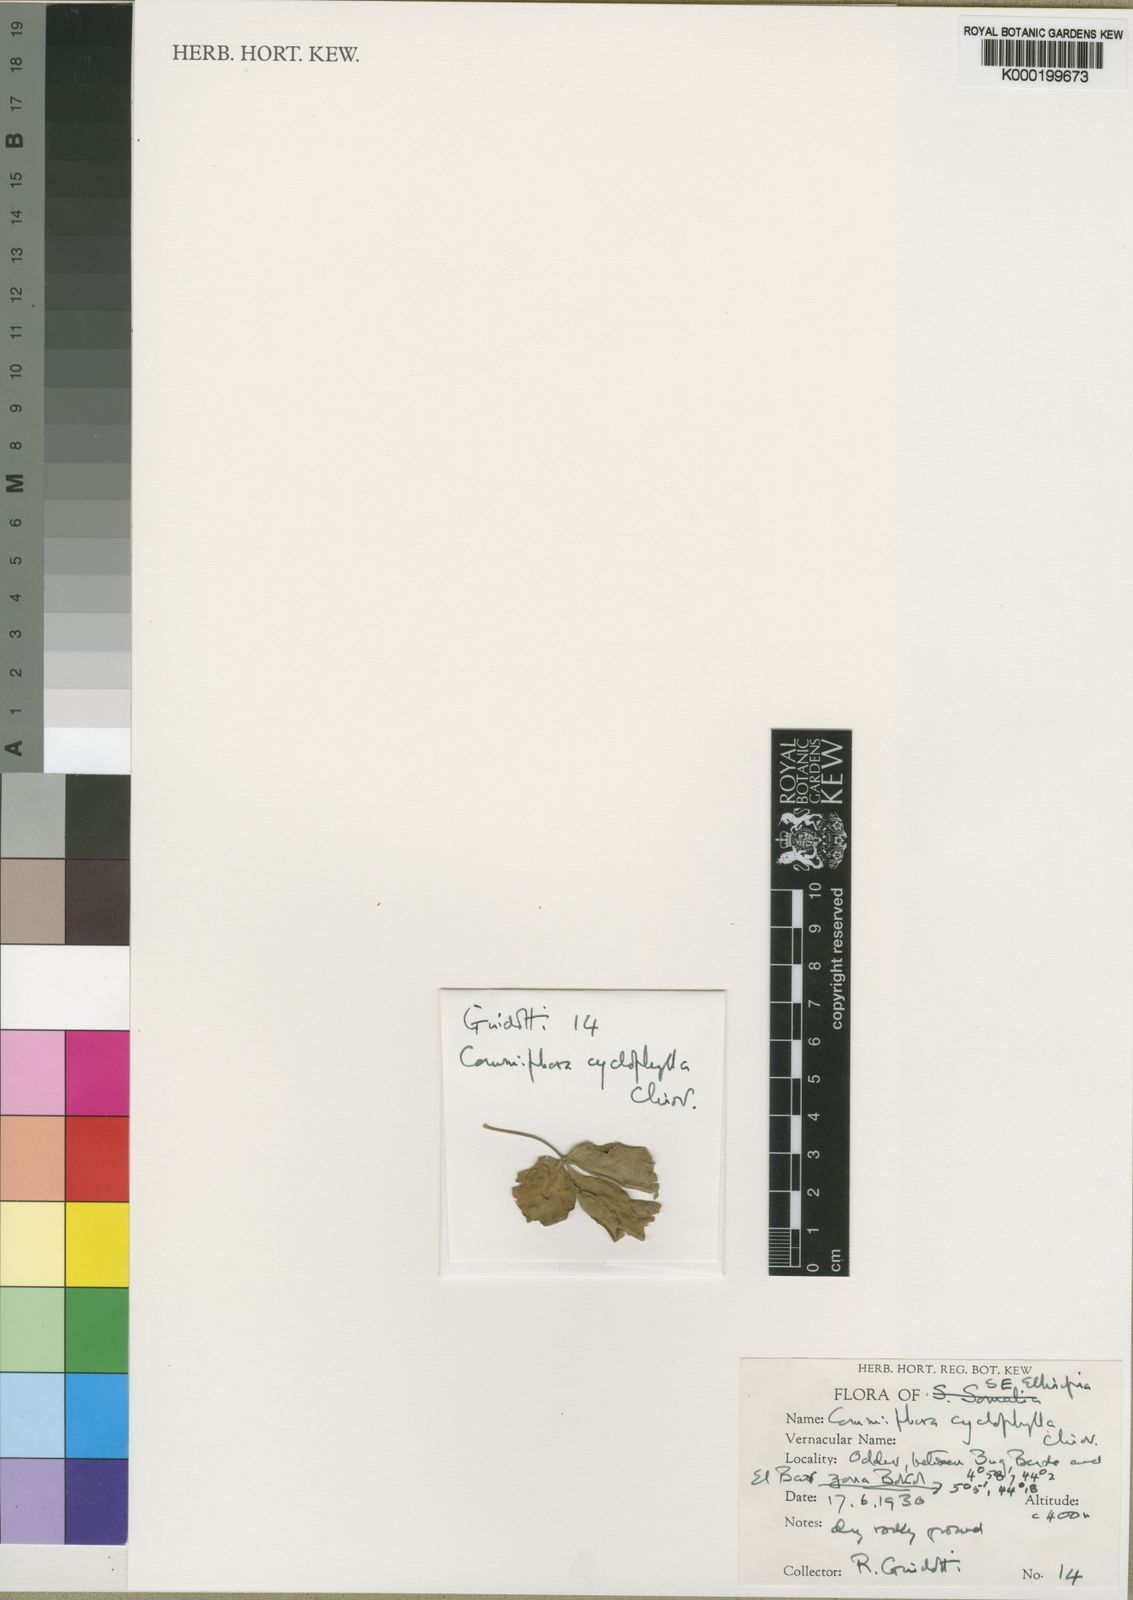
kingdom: Plantae
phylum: Tracheophyta
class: Magnoliopsida
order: Sapindales
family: Burseraceae
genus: Commiphora
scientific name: Commiphora cyclophylla
